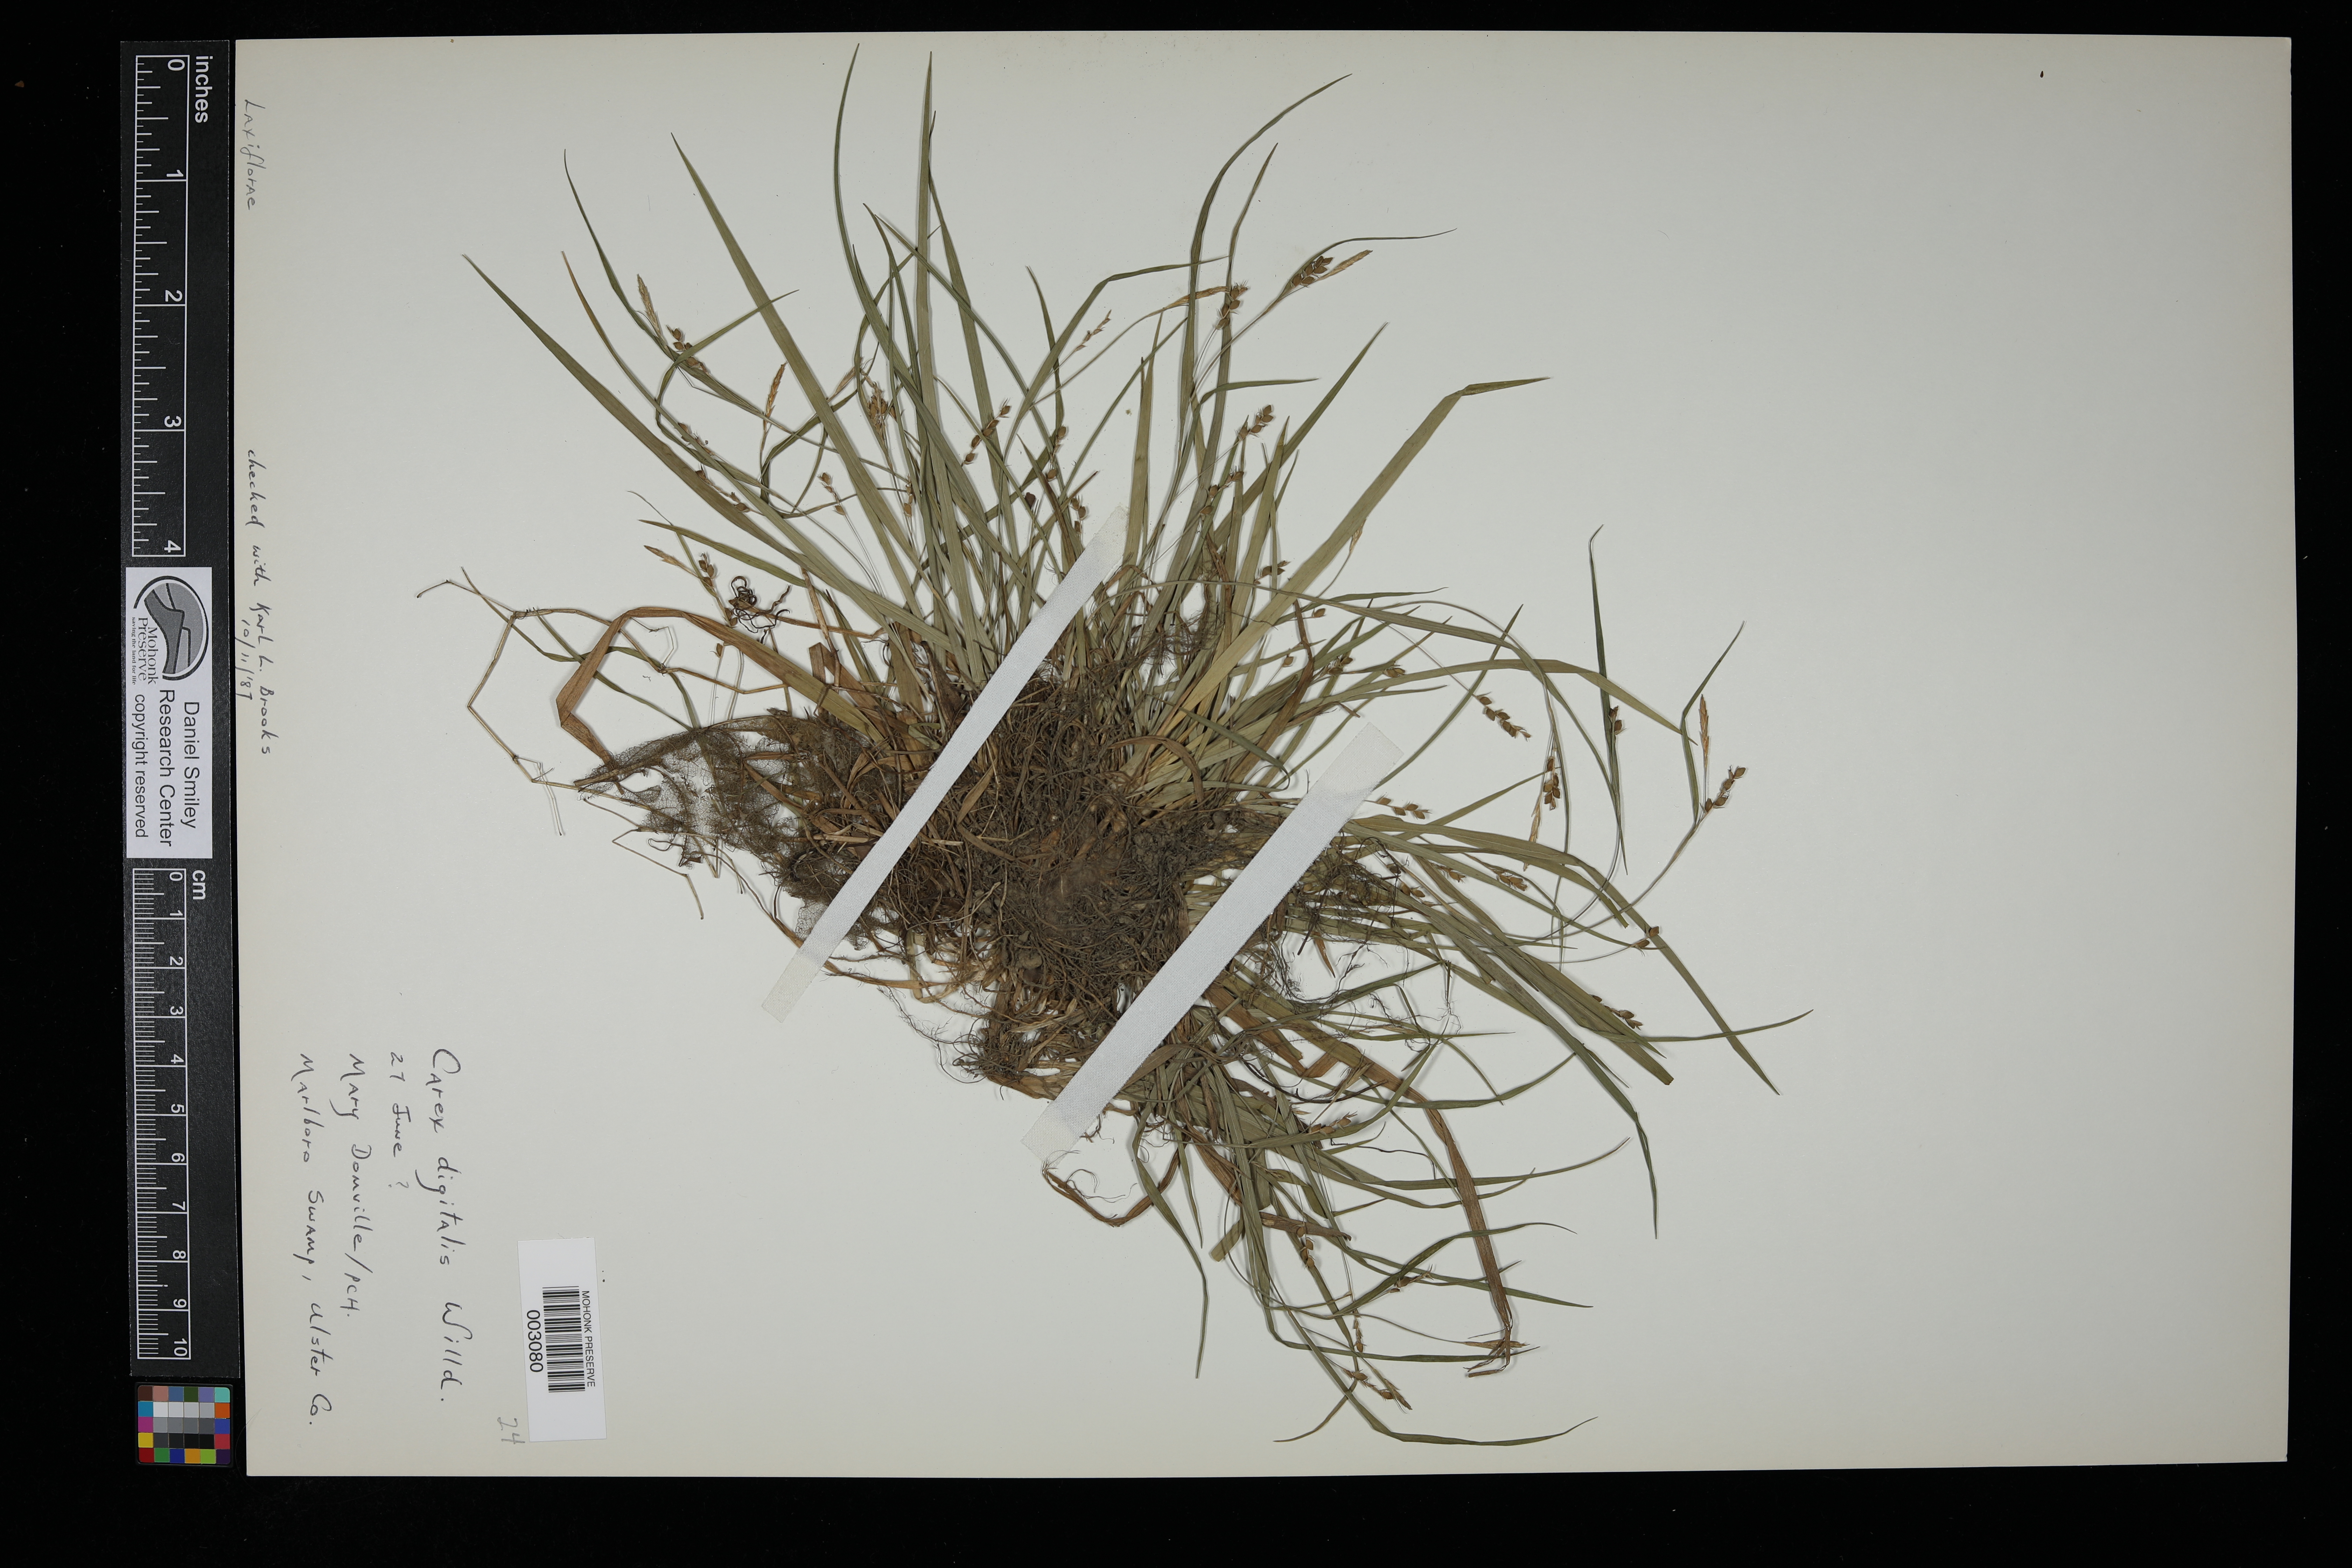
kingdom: Plantae
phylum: Tracheophyta
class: Liliopsida
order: Poales
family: Cyperaceae
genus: Carex
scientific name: Carex digitalis
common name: Slender wood sedge
